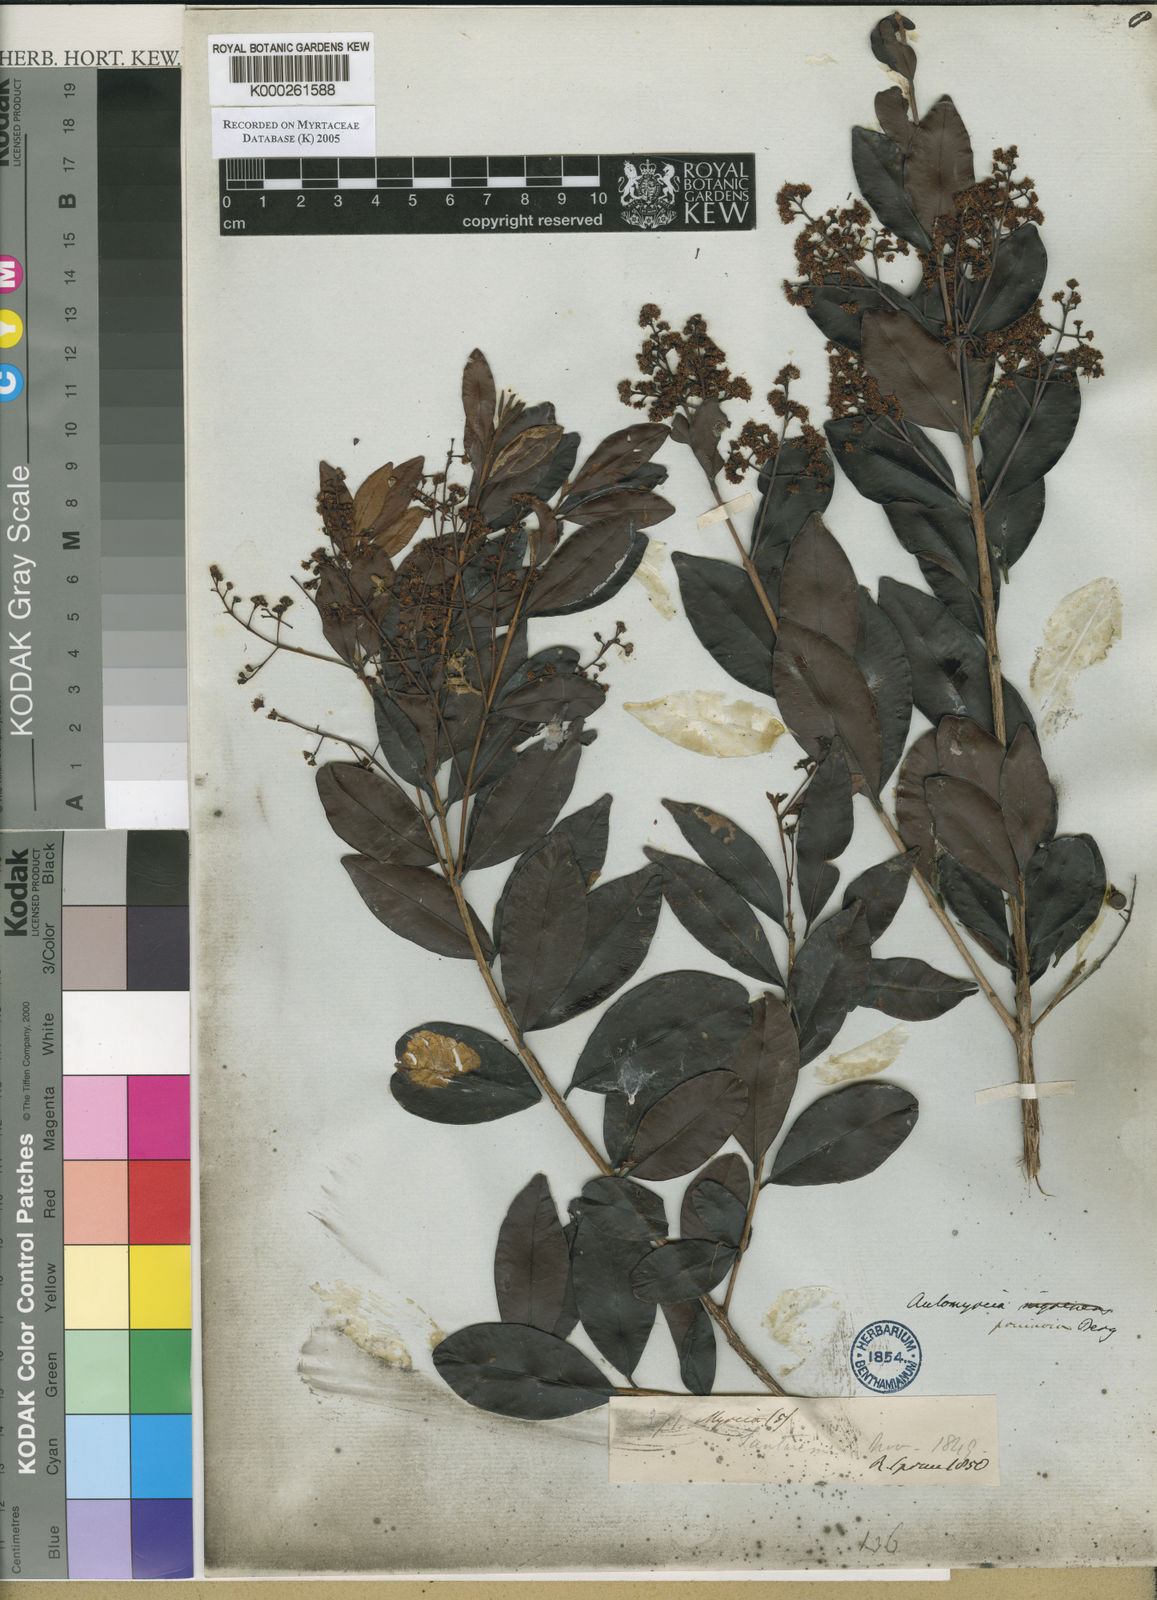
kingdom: Plantae
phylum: Tracheophyta
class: Magnoliopsida
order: Myrtales
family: Myrtaceae
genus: Myrcia
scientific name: Myrcia guianensis
